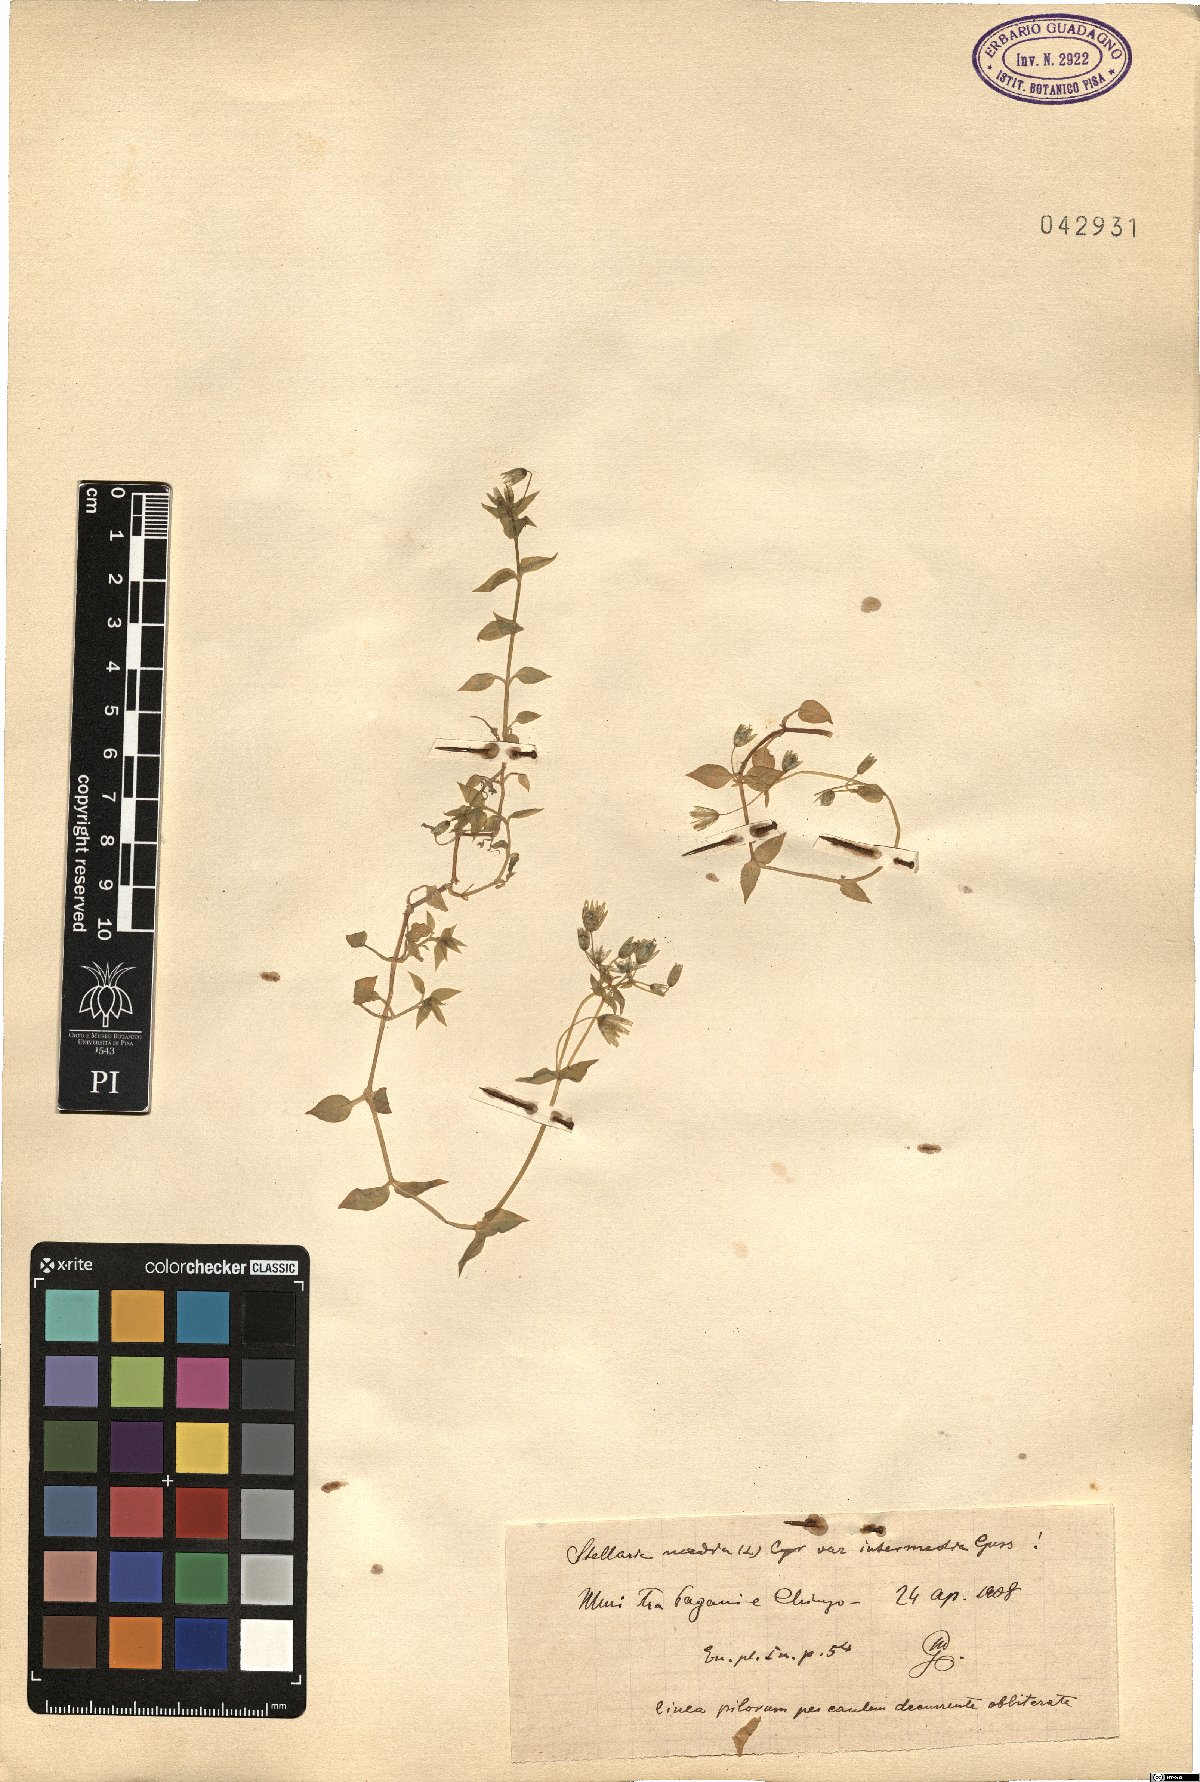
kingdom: Plantae
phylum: Tracheophyta
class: Magnoliopsida
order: Caryophyllales
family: Caryophyllaceae
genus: Stellaria
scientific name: Stellaria media
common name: Common chickweed
